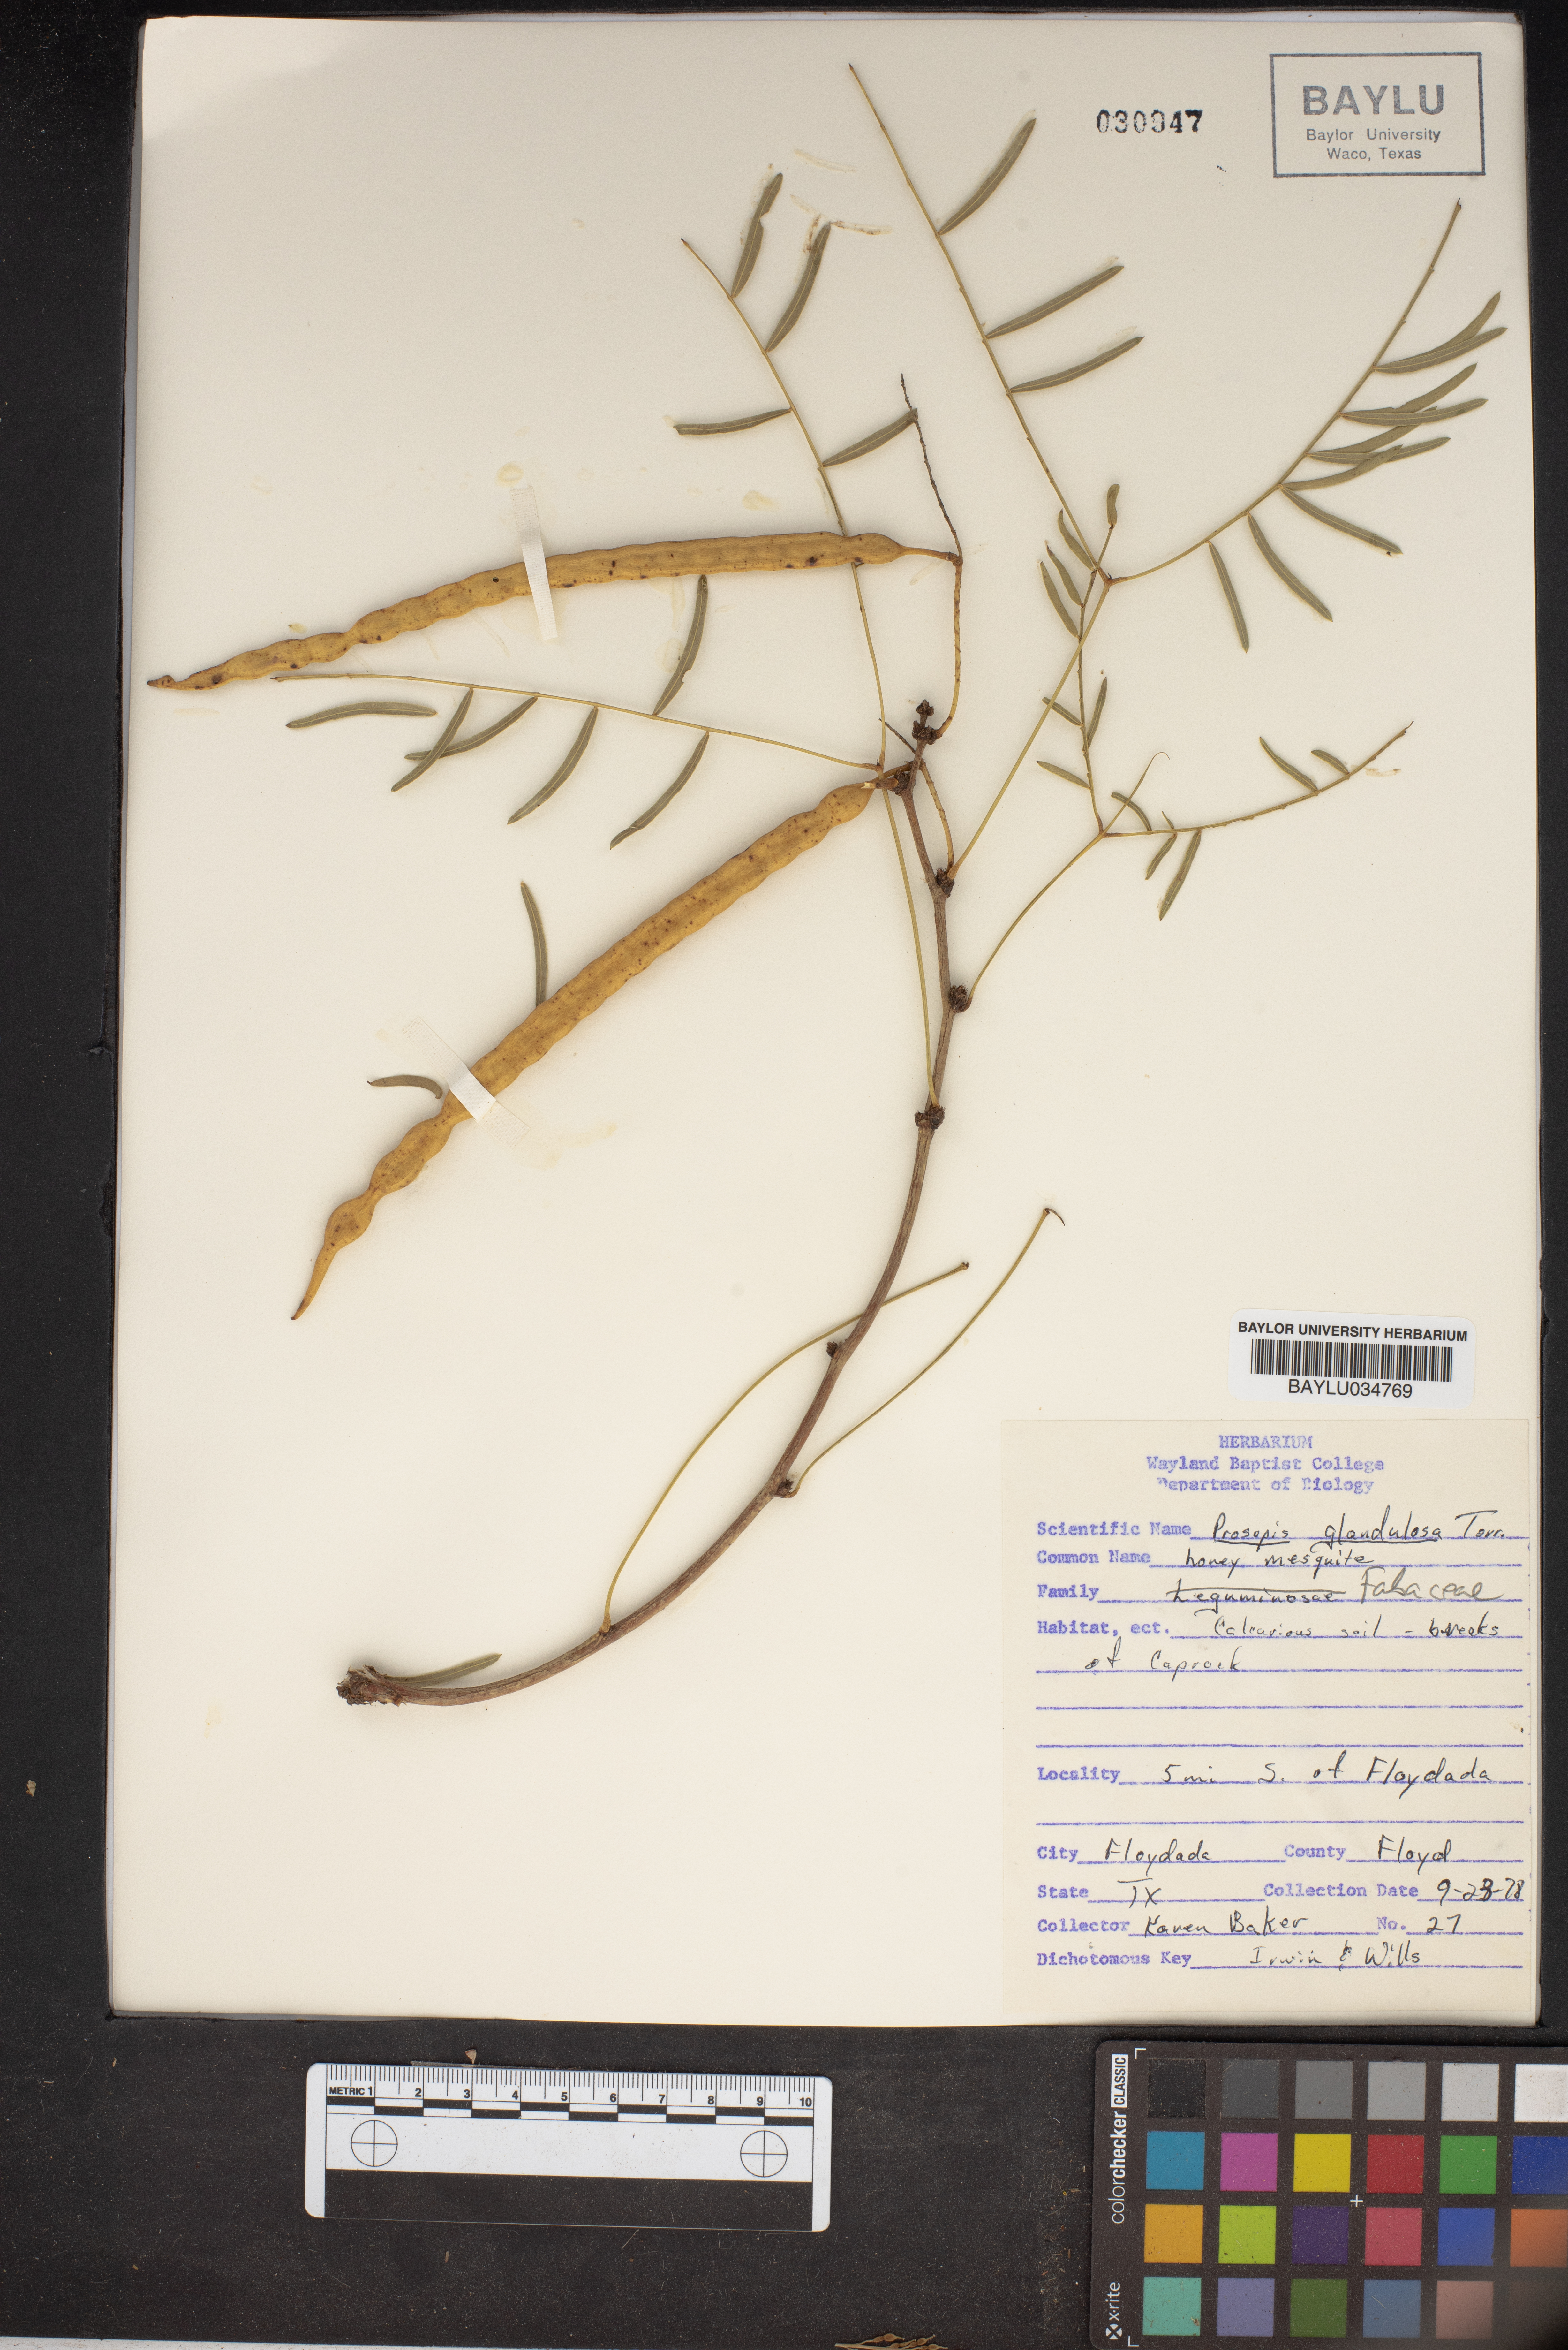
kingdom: Plantae
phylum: Tracheophyta
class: Magnoliopsida
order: Fabales
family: Fabaceae
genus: Prosopis
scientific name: Prosopis glandulosa
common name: Honey mesquite
